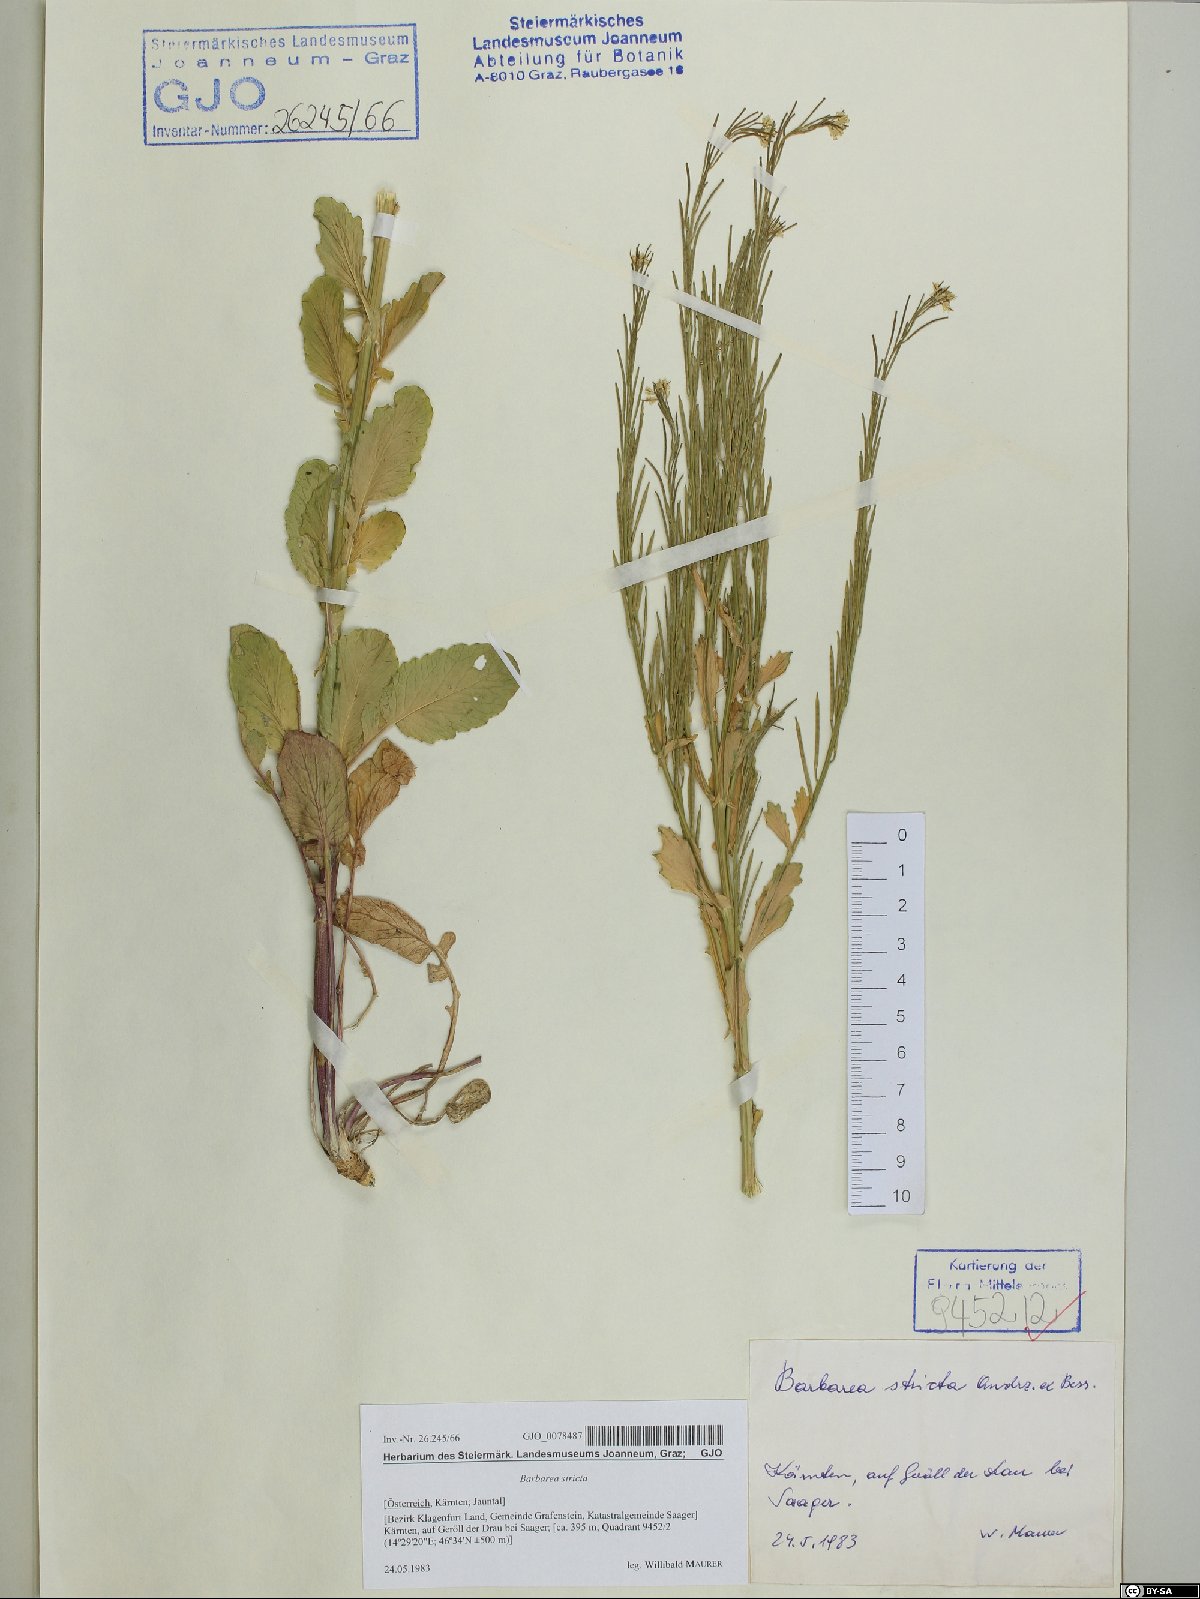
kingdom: Plantae
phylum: Tracheophyta
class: Magnoliopsida
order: Brassicales
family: Brassicaceae
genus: Barbarea
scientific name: Barbarea stricta
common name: Small-flowered winter-cress
